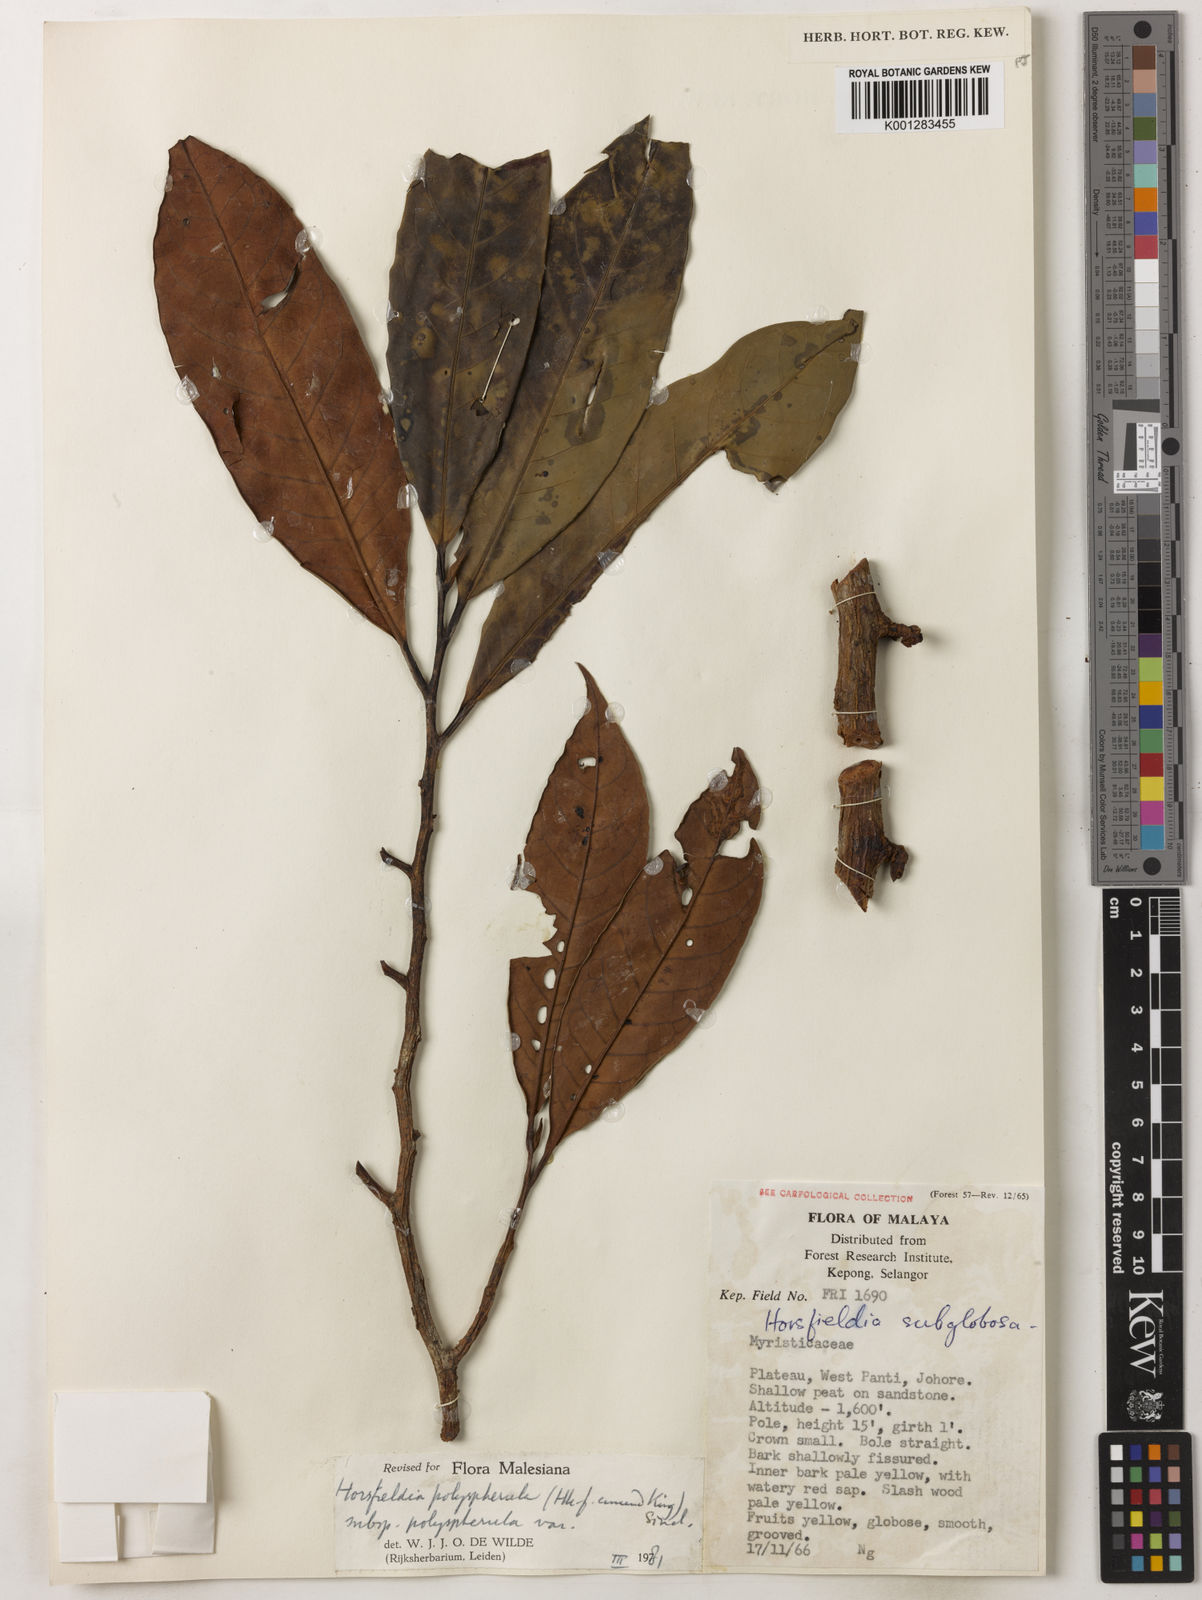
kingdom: Plantae
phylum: Tracheophyta
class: Magnoliopsida
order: Magnoliales
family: Myristicaceae
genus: Horsfieldia
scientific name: Horsfieldia polyspherula
